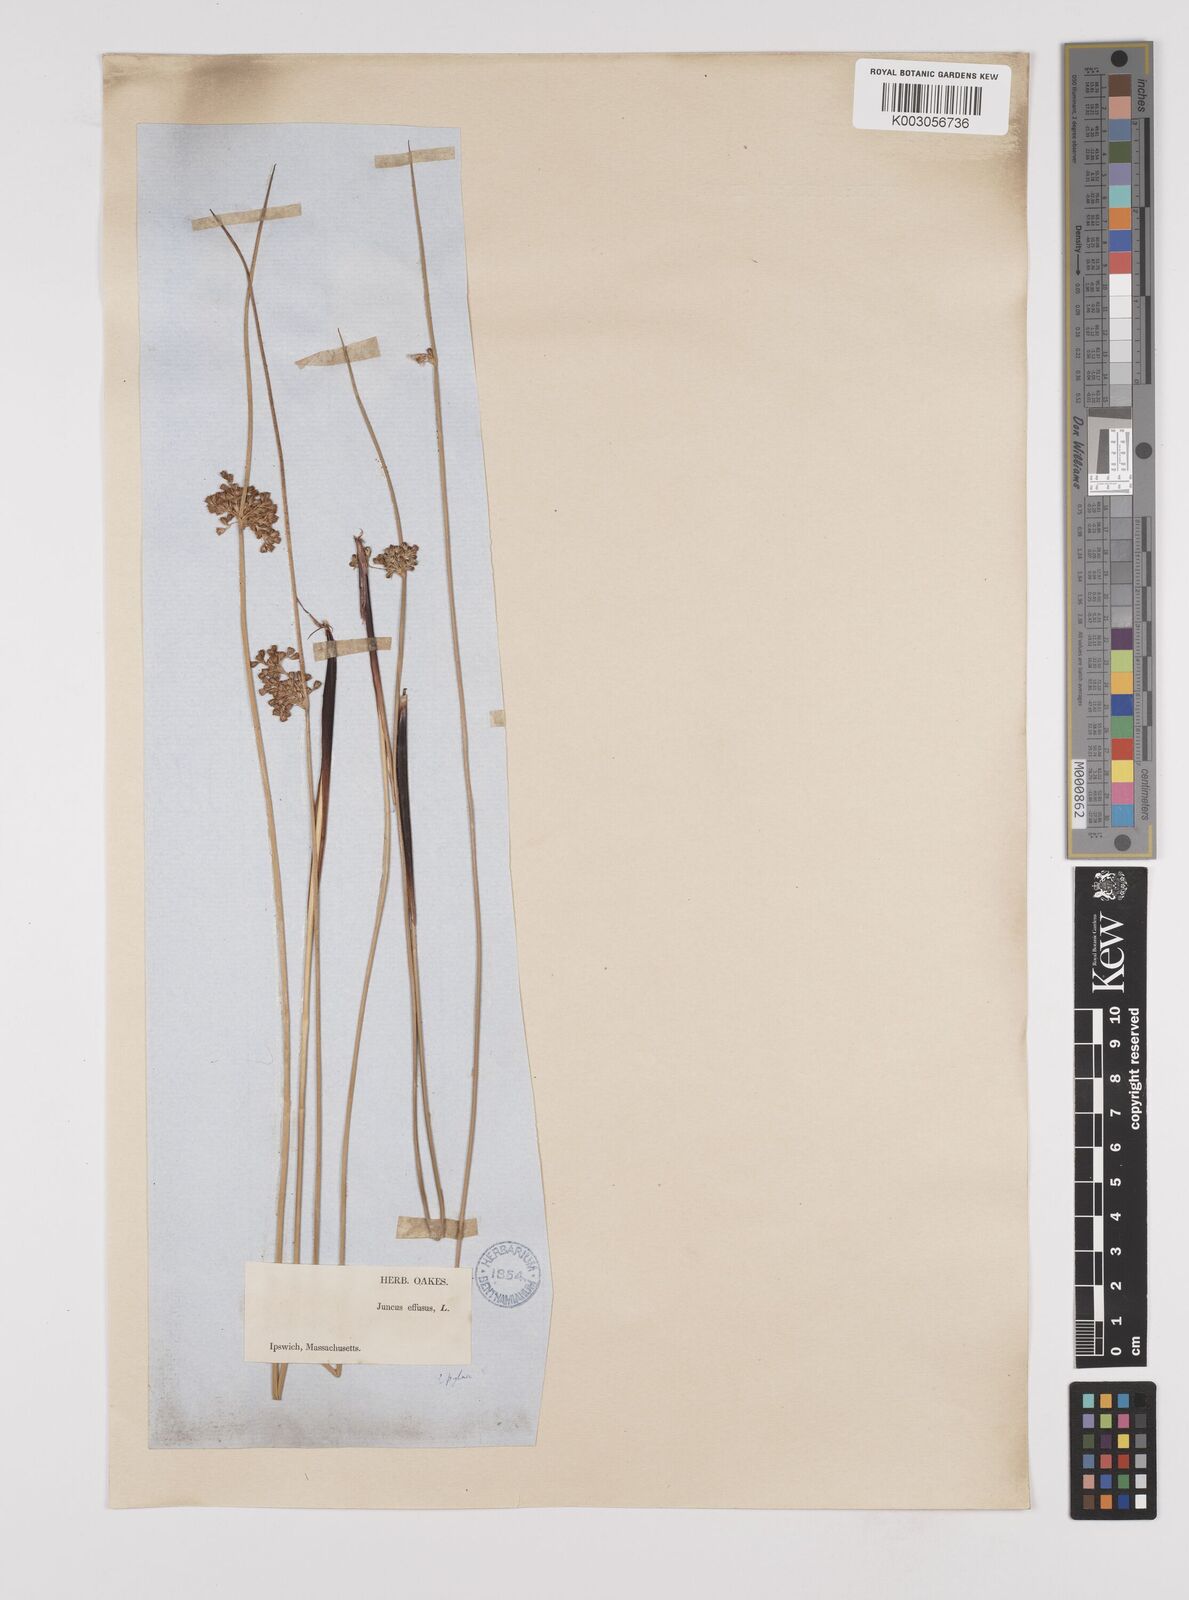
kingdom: Plantae
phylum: Tracheophyta
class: Liliopsida
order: Poales
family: Juncaceae
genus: Juncus
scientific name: Juncus effusus
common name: Soft rush
